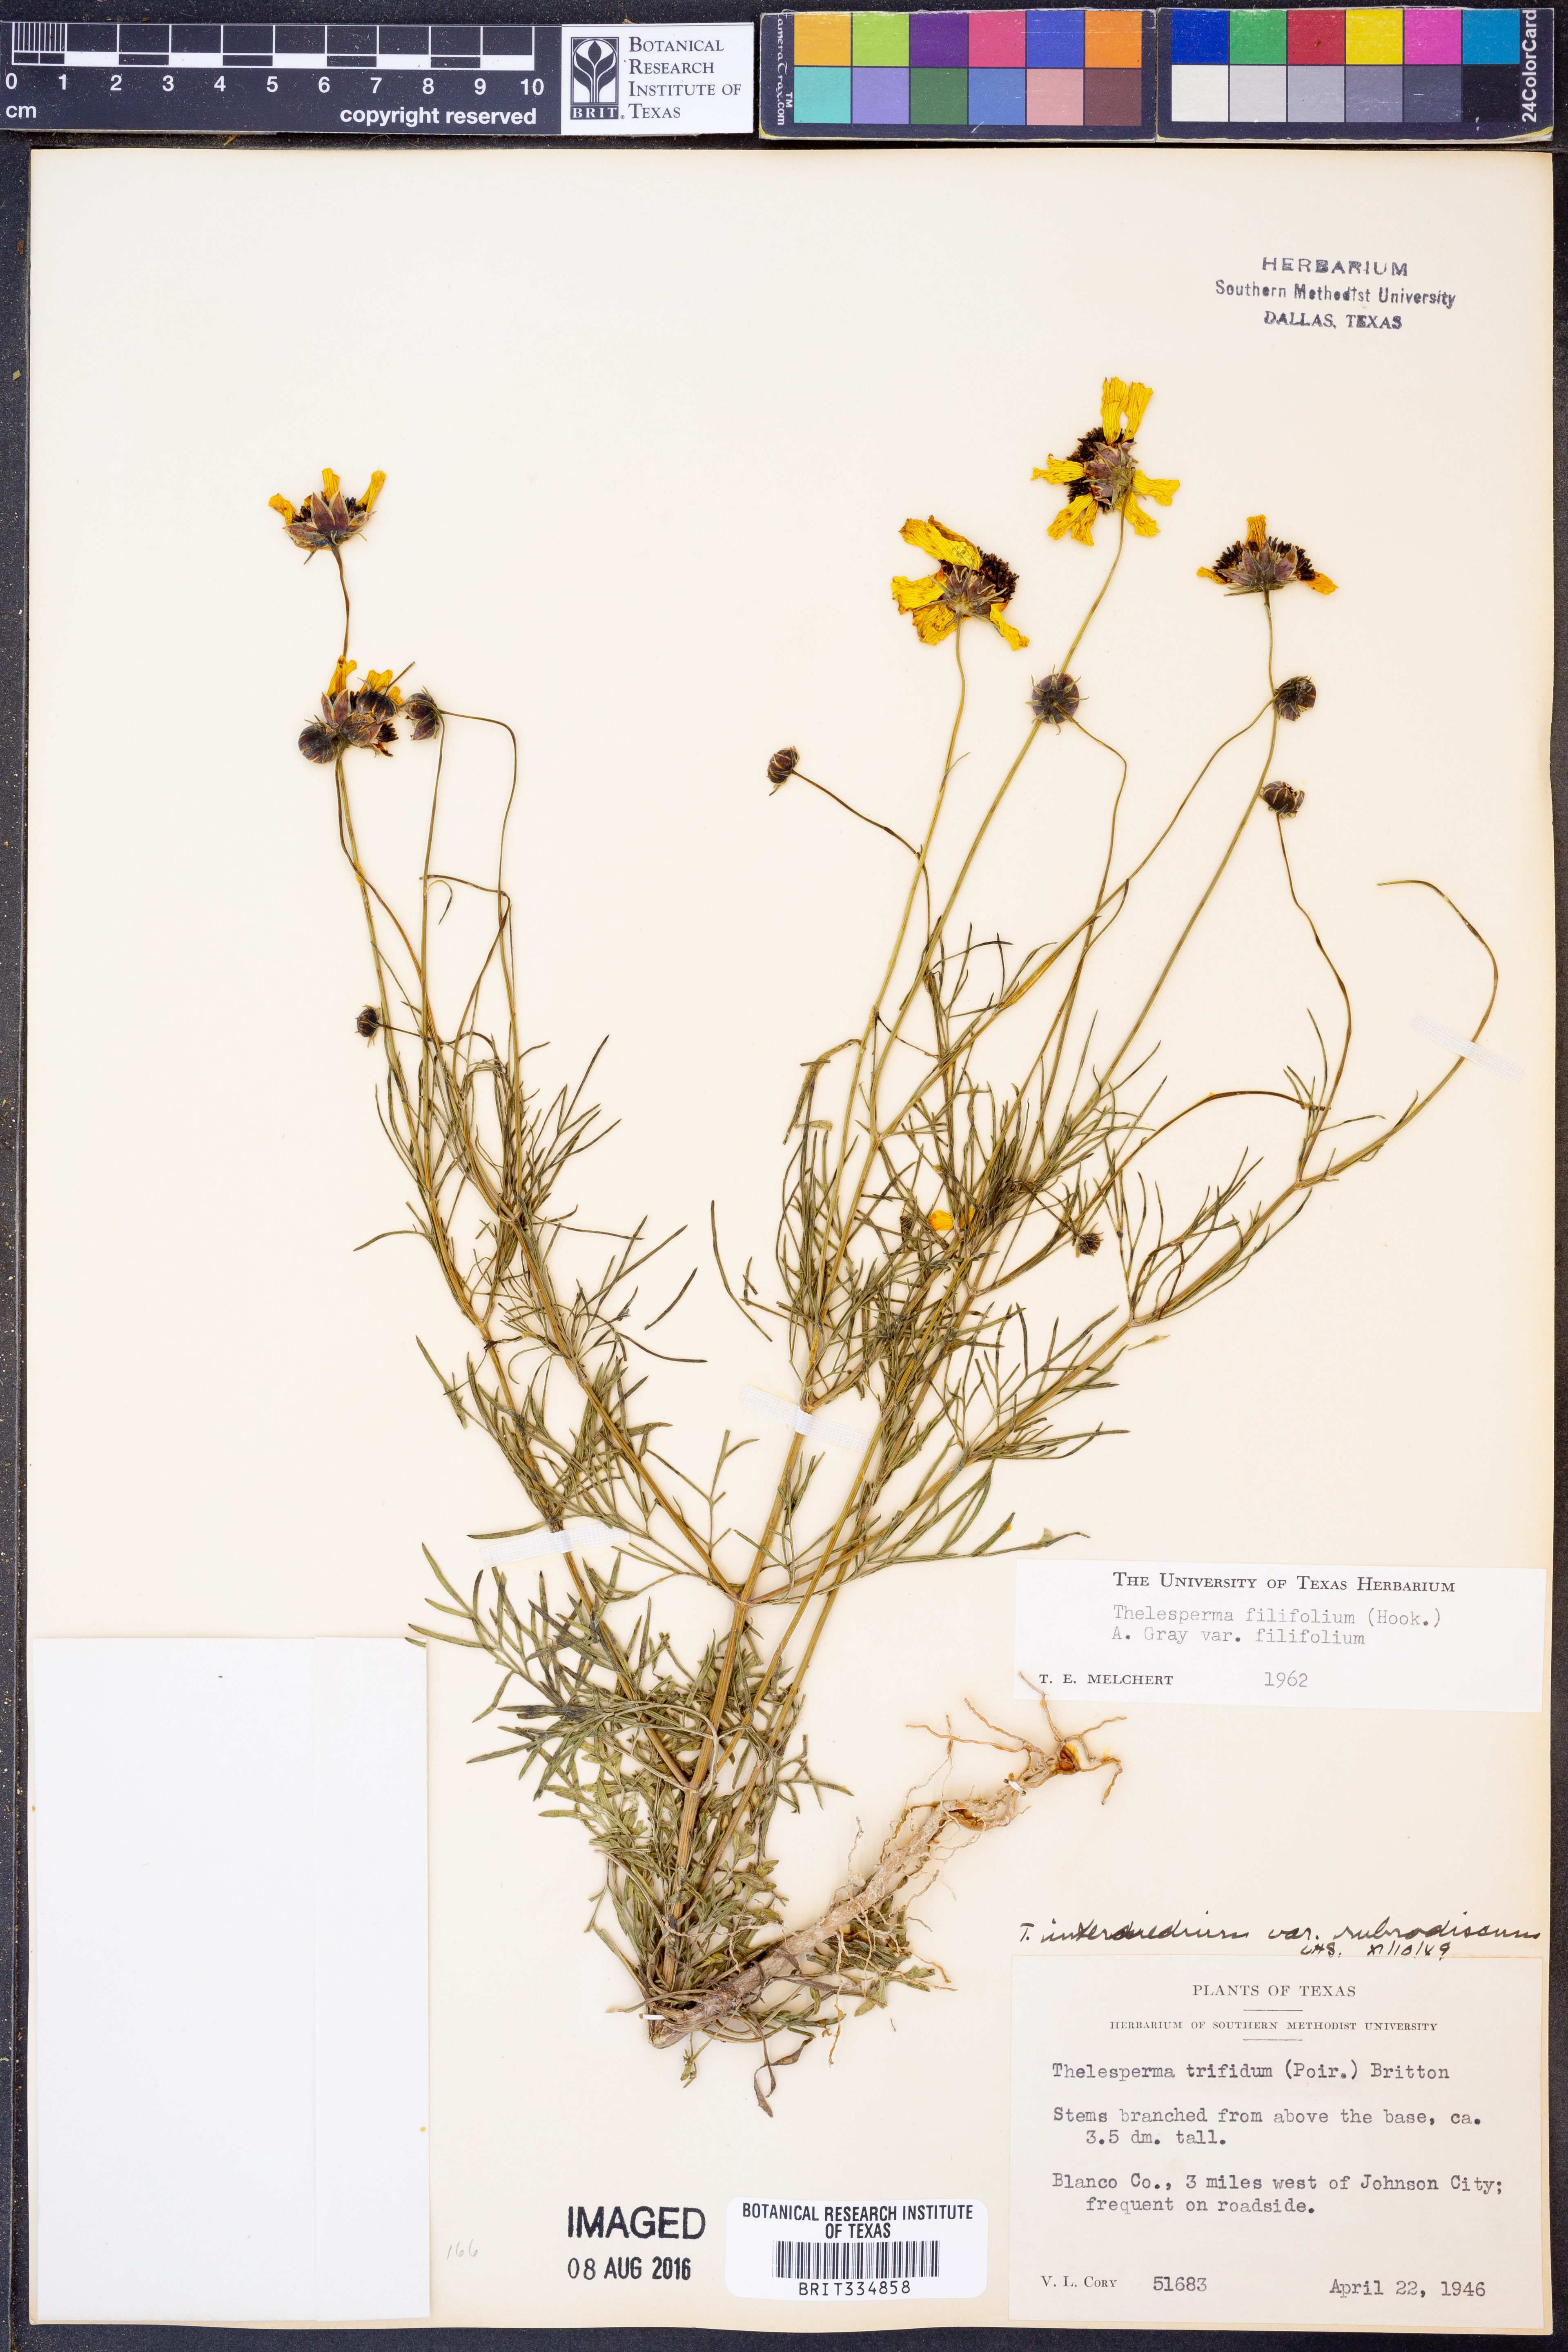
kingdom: Plantae
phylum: Tracheophyta
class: Magnoliopsida
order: Asterales
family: Asteraceae
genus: Thelesperma
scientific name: Thelesperma filifolium
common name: Stiff greenthread
